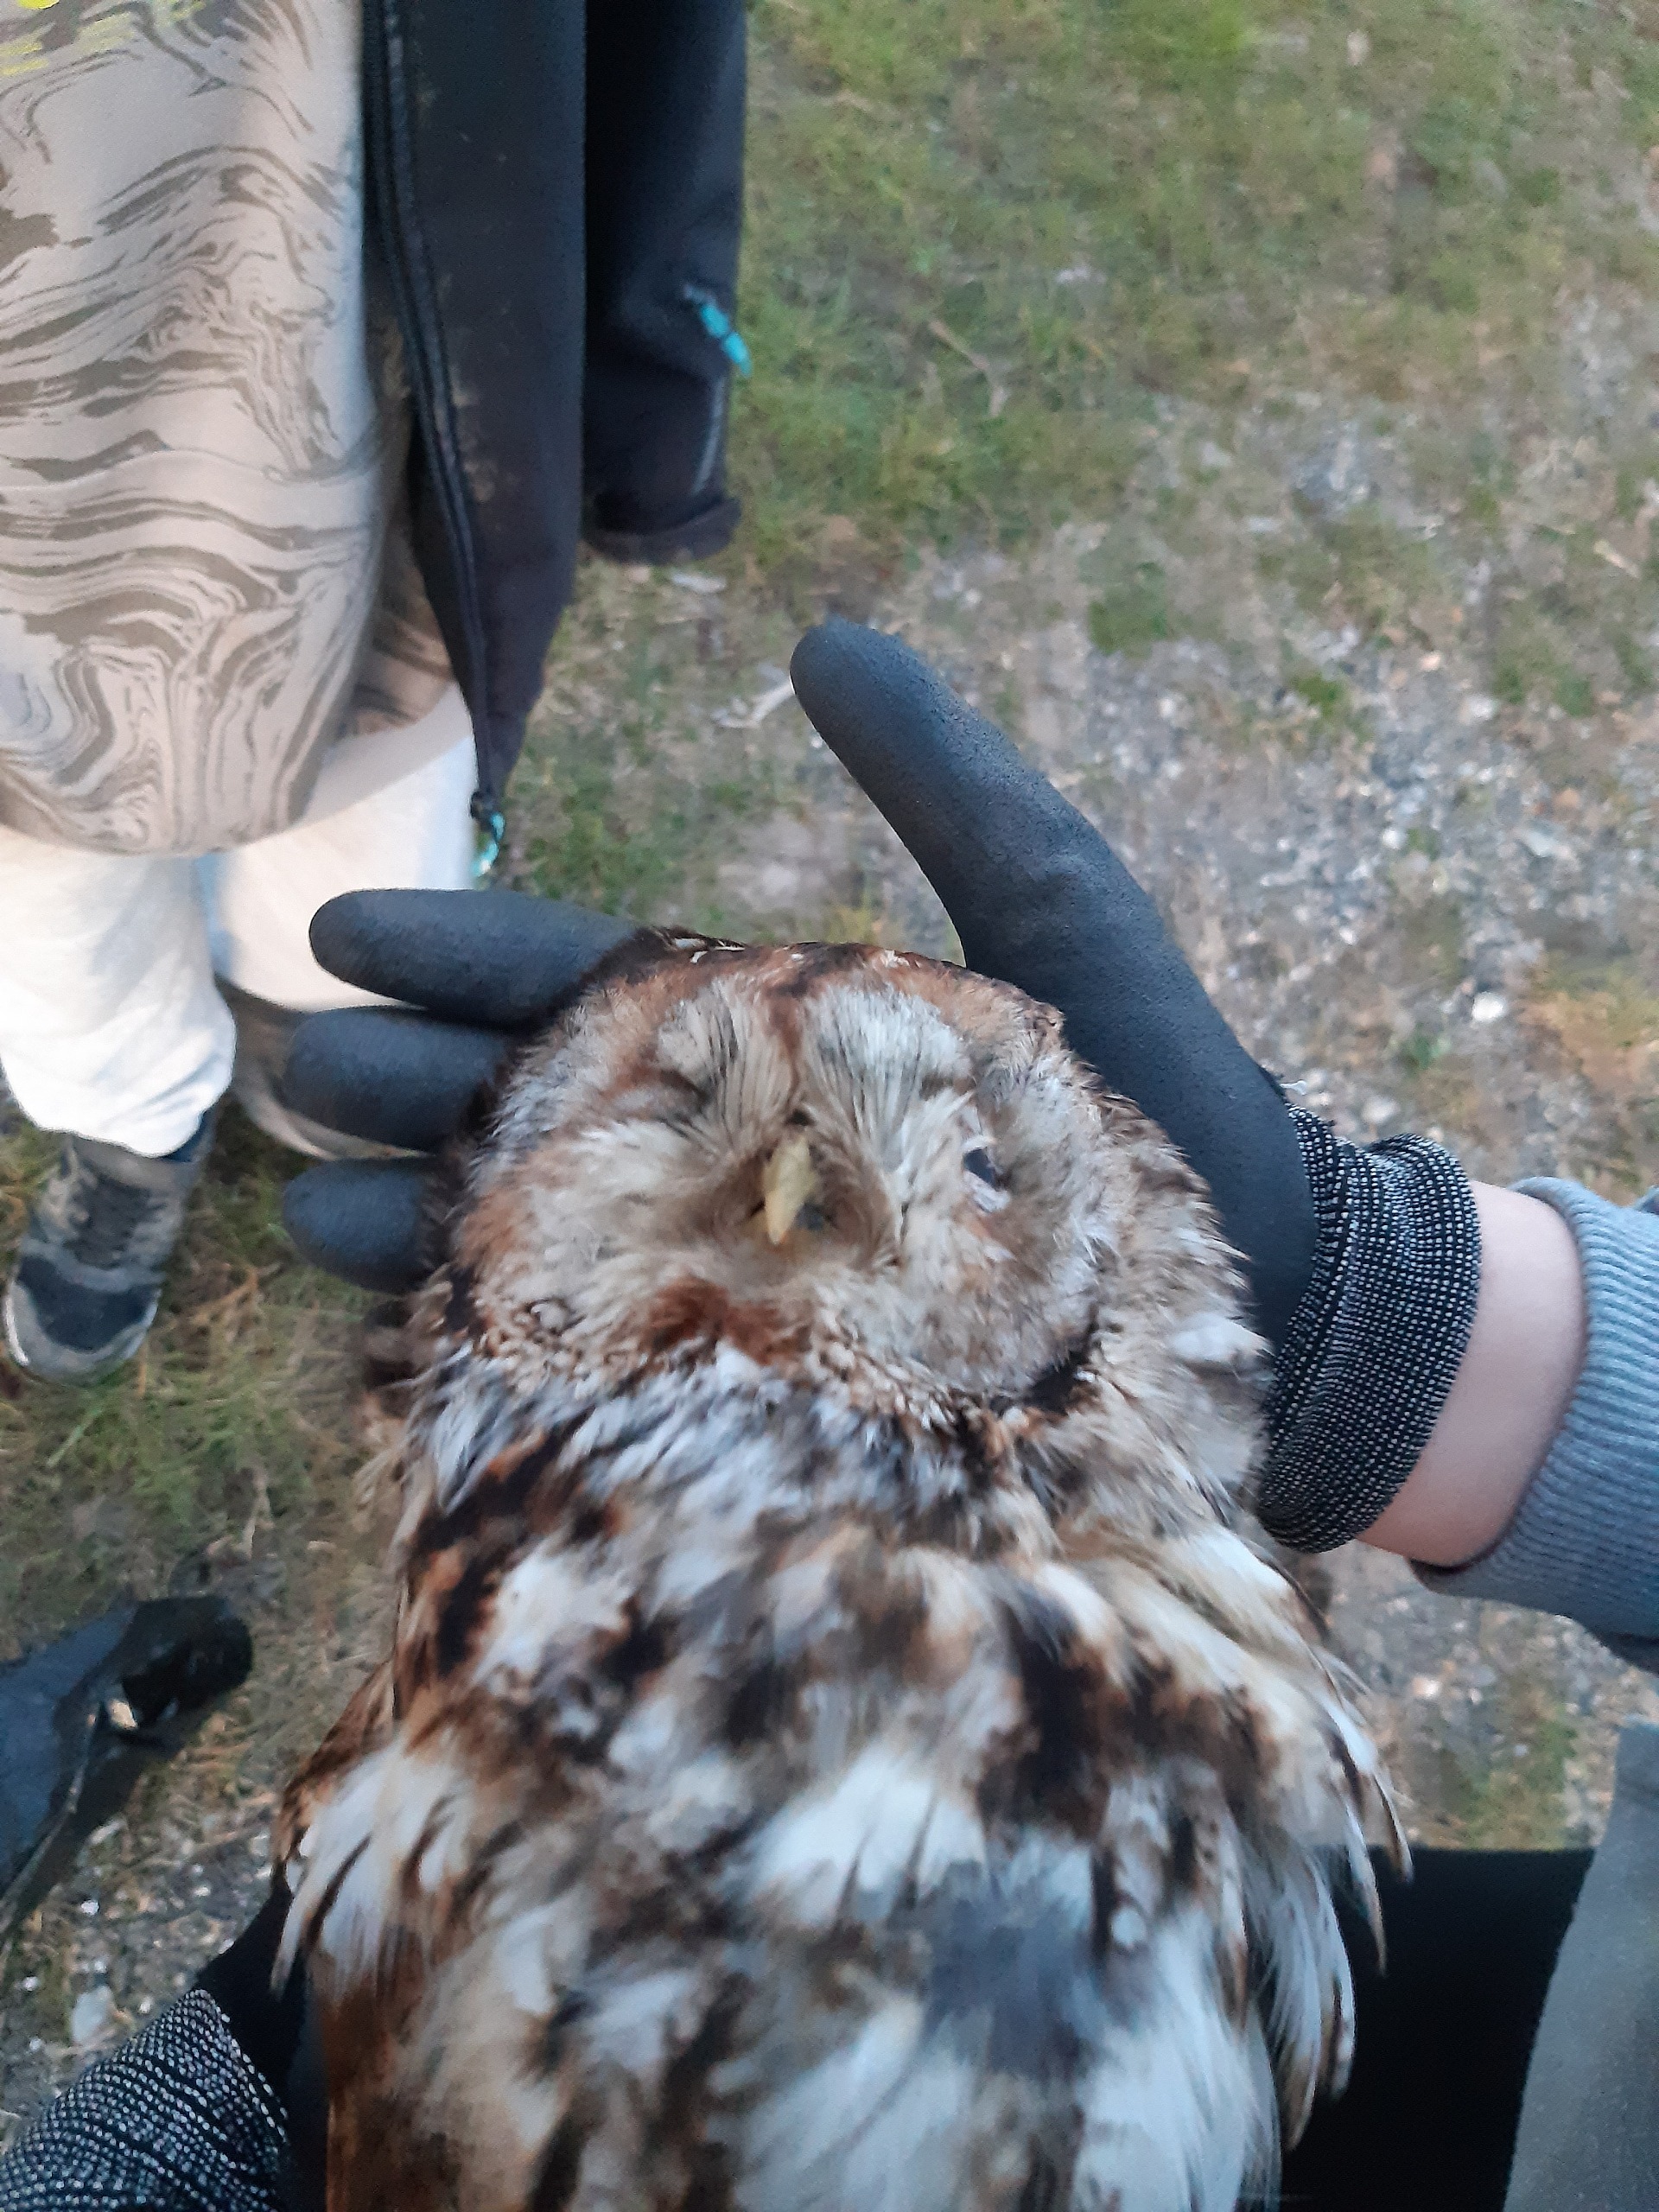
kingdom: Animalia
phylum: Chordata
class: Aves
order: Strigiformes
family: Strigidae
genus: Strix
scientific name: Strix aluco
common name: Natugle
